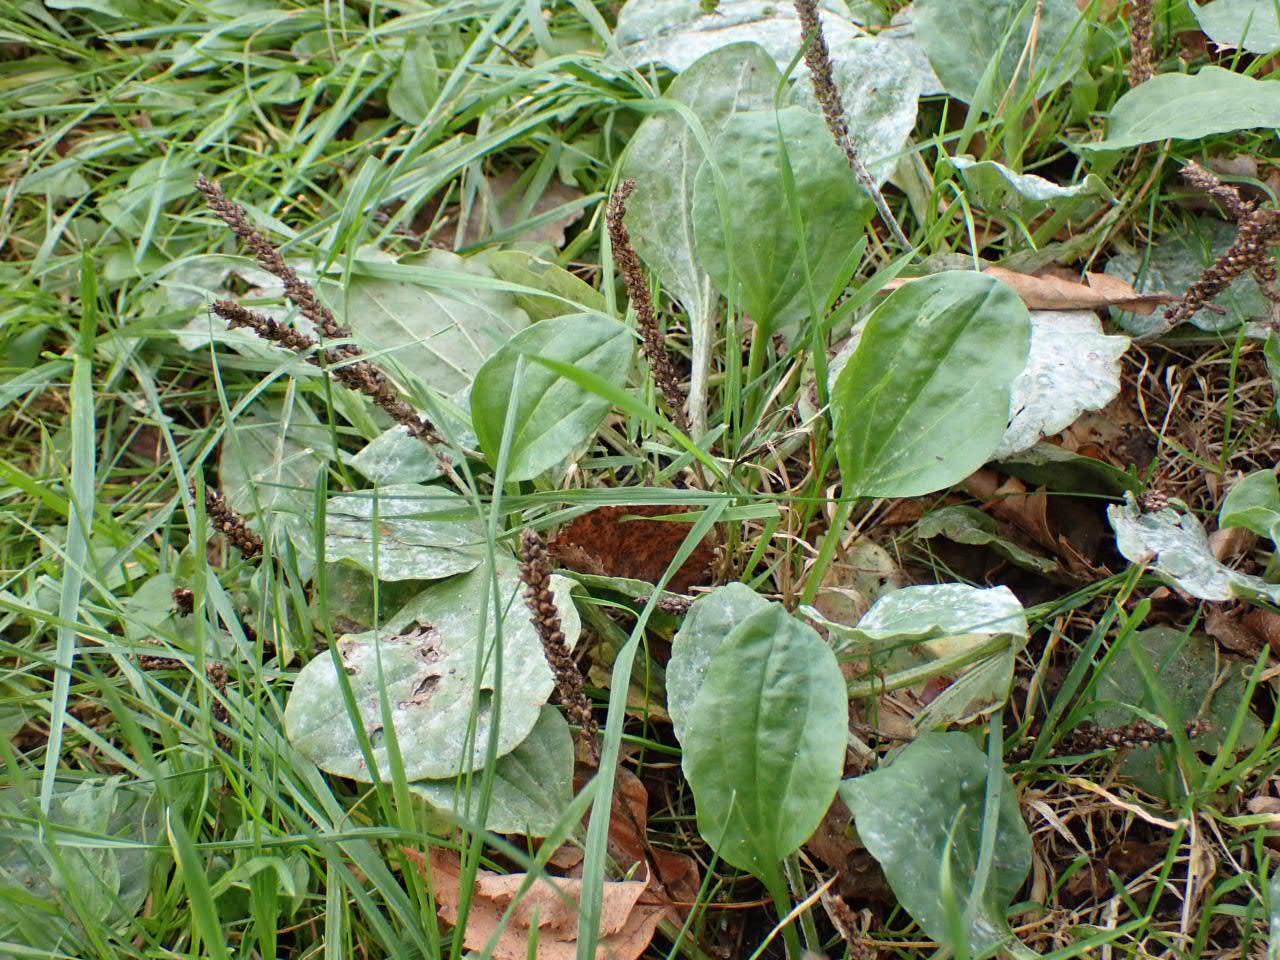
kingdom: Plantae
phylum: Tracheophyta
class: Magnoliopsida
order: Lamiales
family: Plantaginaceae
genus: Plantago
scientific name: Plantago major
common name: Glat vejbred
